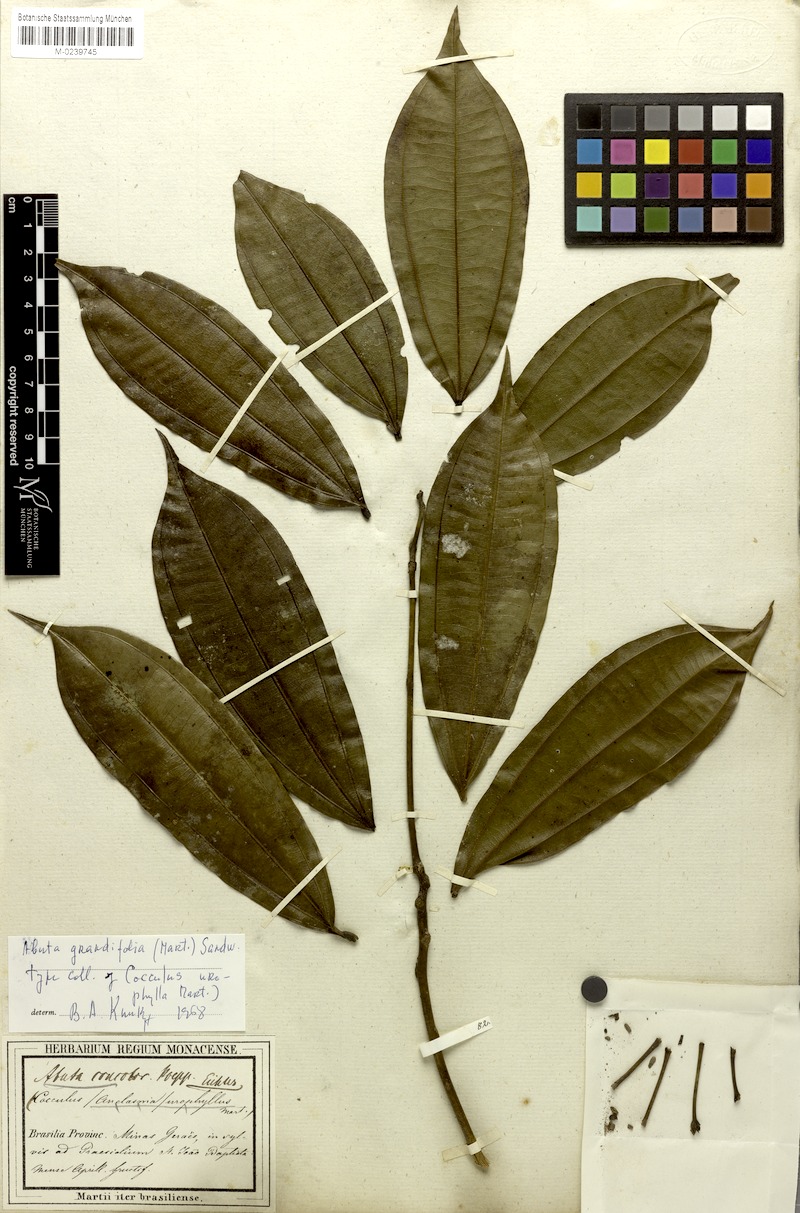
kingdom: Plantae
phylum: Tracheophyta
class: Magnoliopsida
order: Ranunculales
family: Menispermaceae
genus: Abuta
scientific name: Abuta grandifolia
